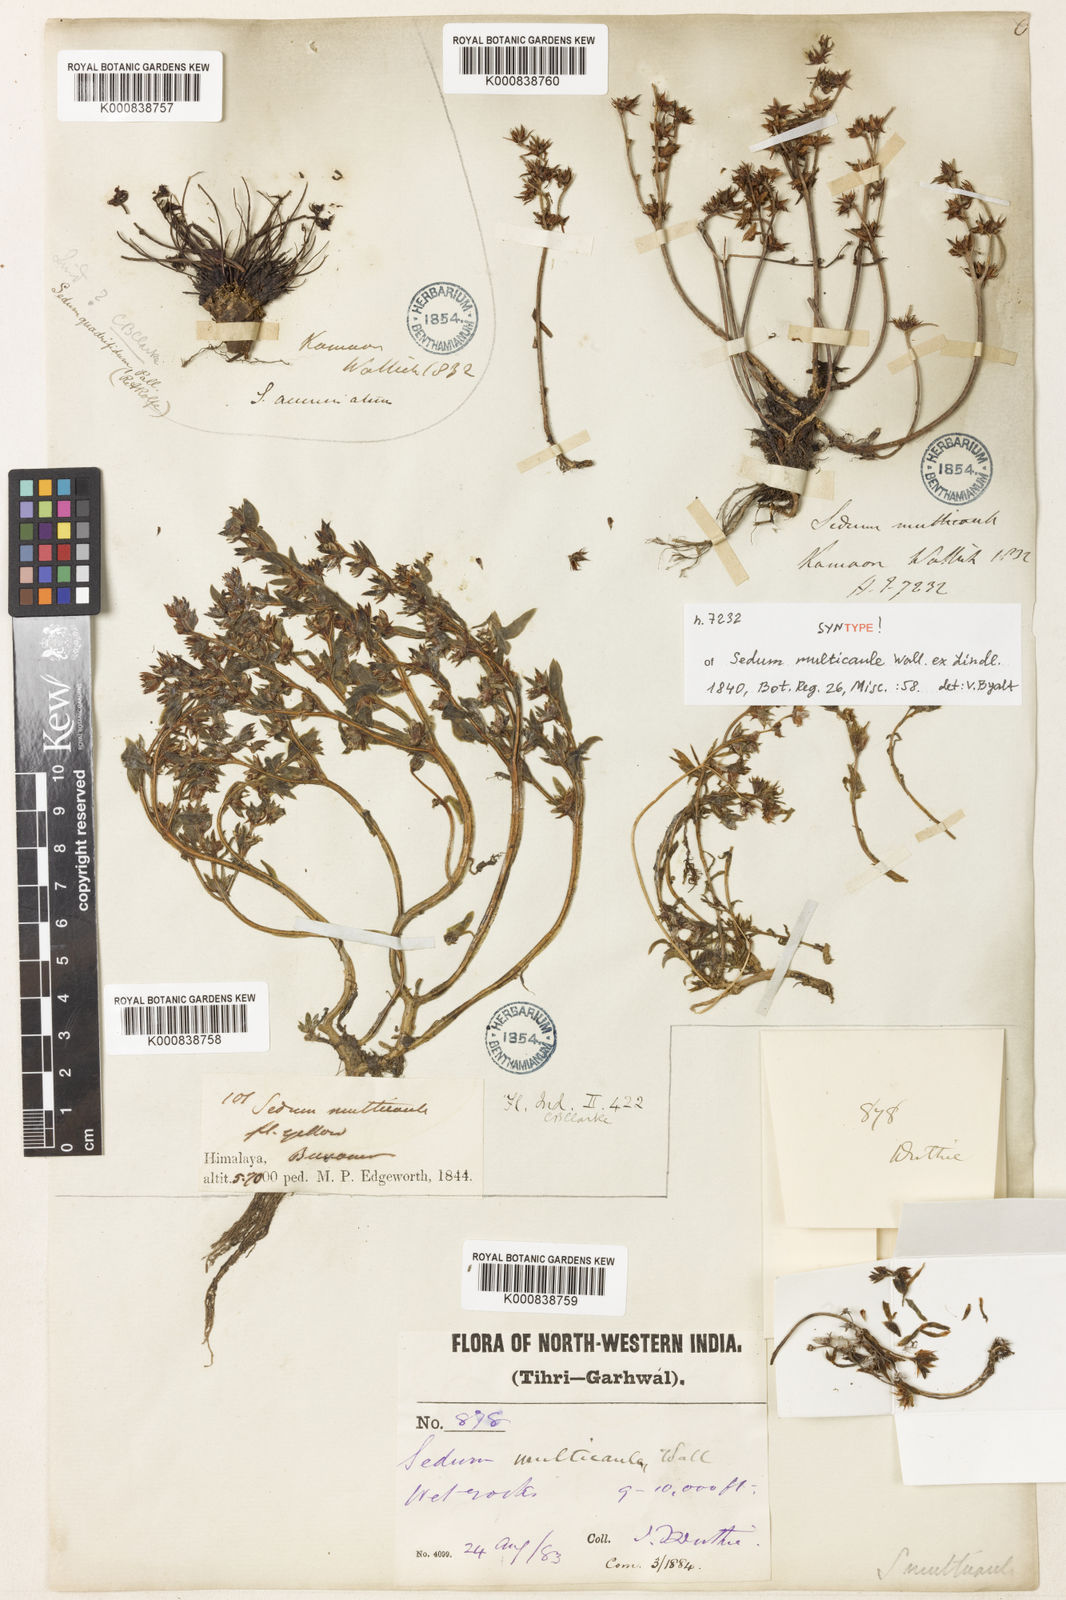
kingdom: Plantae
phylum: Tracheophyta
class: Magnoliopsida
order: Saxifragales
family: Crassulaceae
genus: Sedum
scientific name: Sedum multicaule
